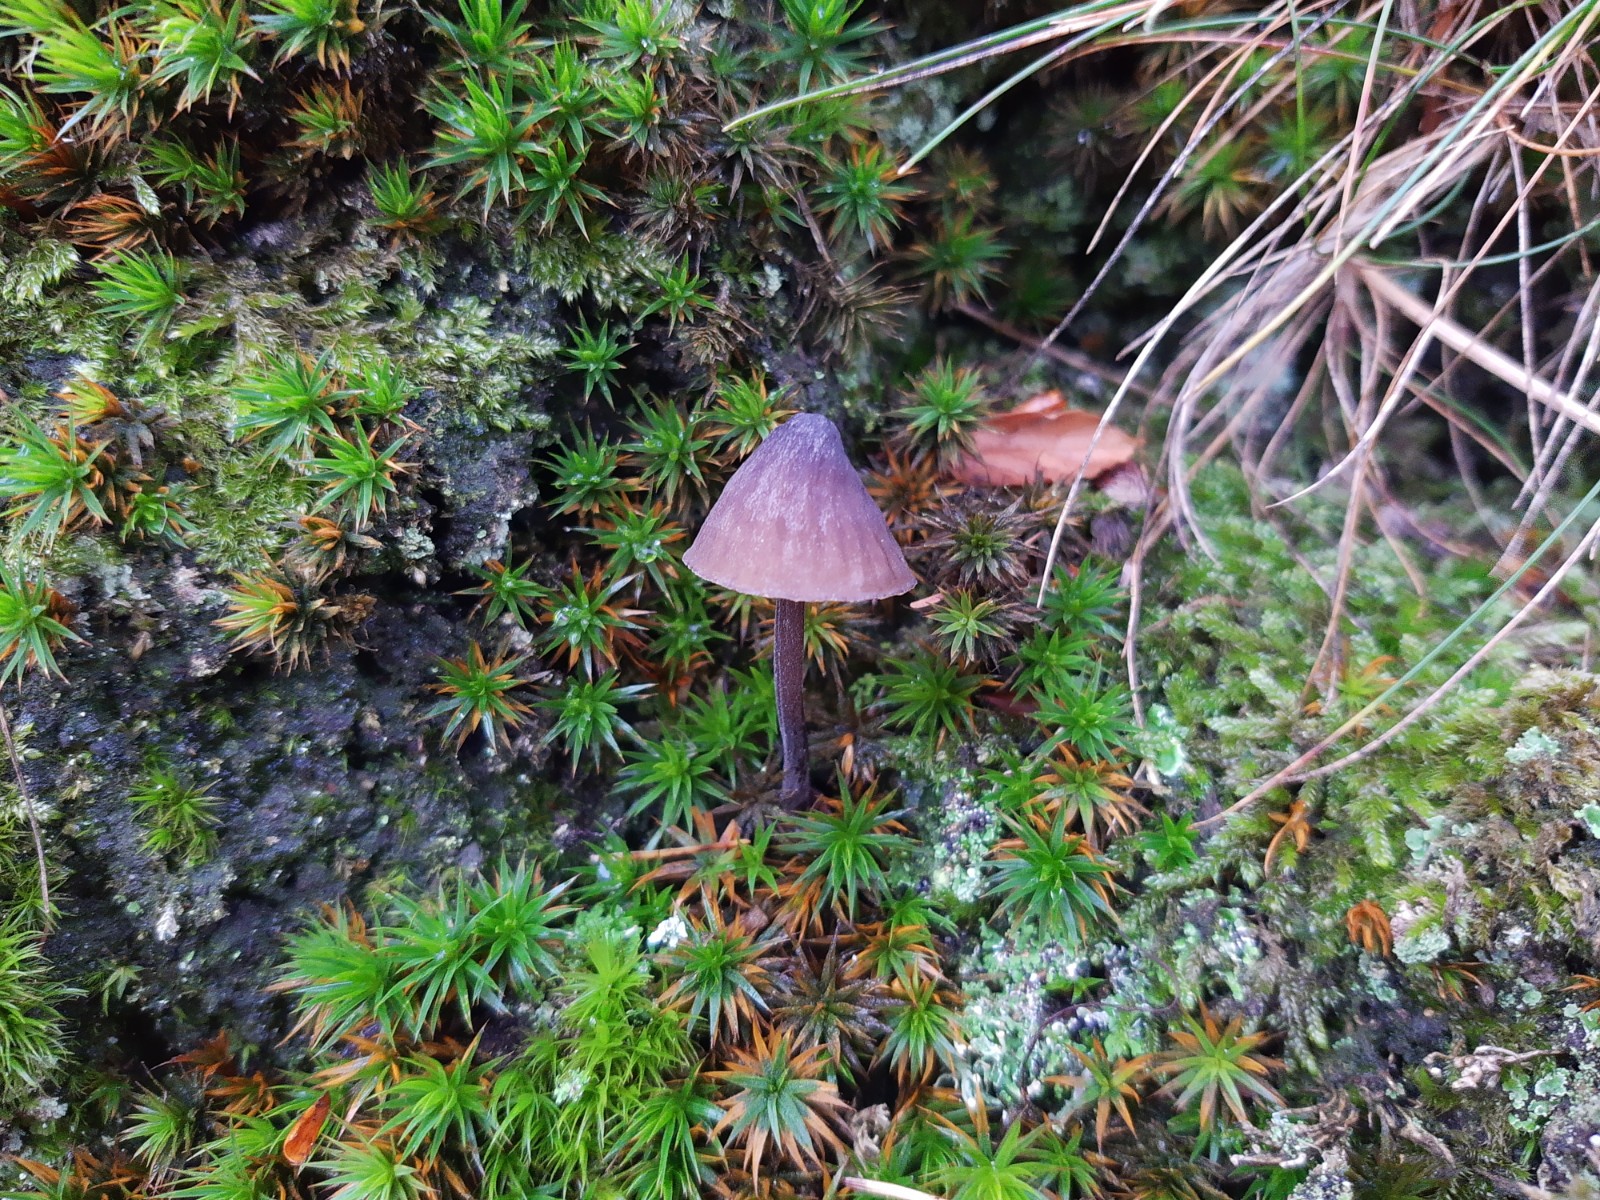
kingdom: Fungi
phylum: Basidiomycota
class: Agaricomycetes
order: Agaricales
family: Mycenaceae
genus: Mycena
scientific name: Mycena galopus
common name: hvidmælket huesvamp
